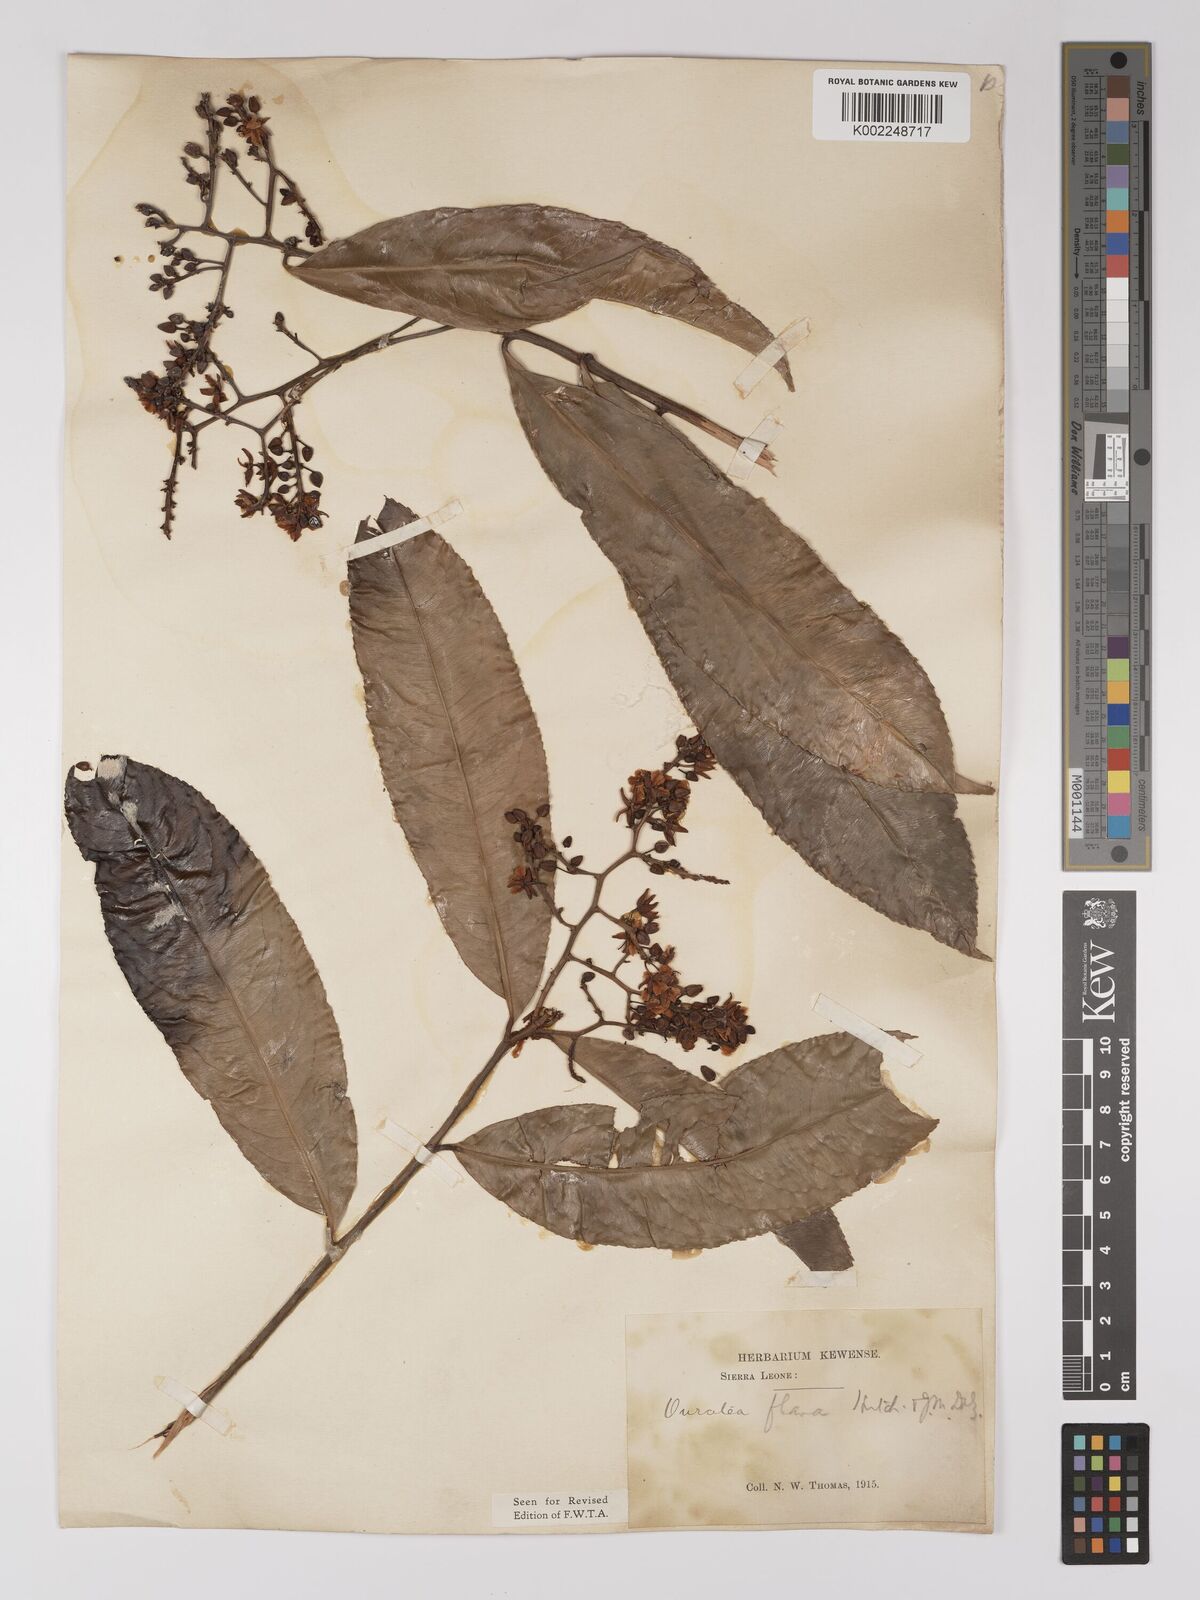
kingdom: Plantae
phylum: Tracheophyta
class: Magnoliopsida
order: Malpighiales
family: Ochnaceae
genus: Campylospermum
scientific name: Campylospermum flavum
